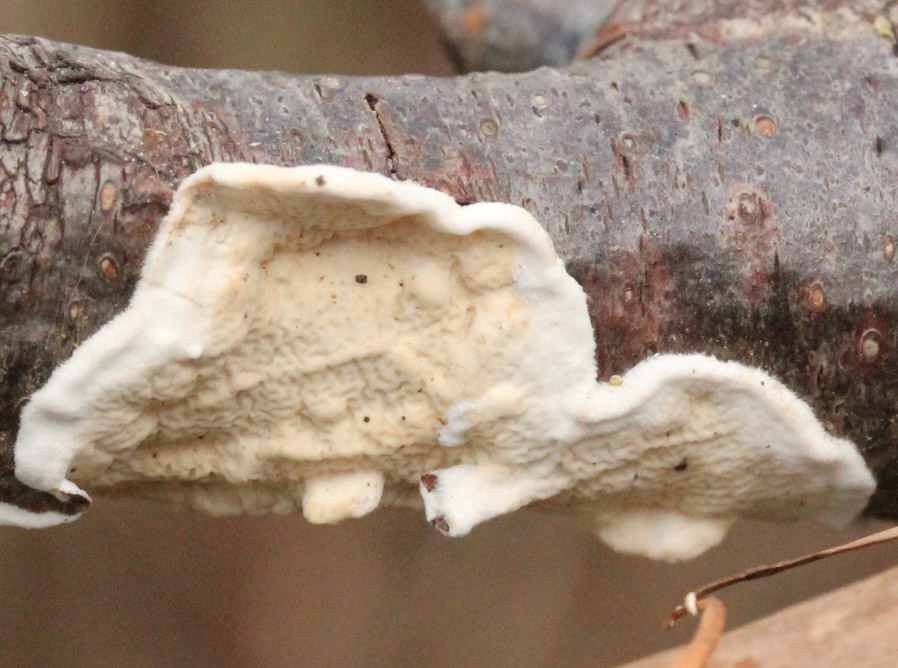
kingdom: Fungi
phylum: Basidiomycota
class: Agaricomycetes
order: Polyporales
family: Irpicaceae
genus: Byssomerulius
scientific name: Byssomerulius corium
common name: læder-åresvamp
